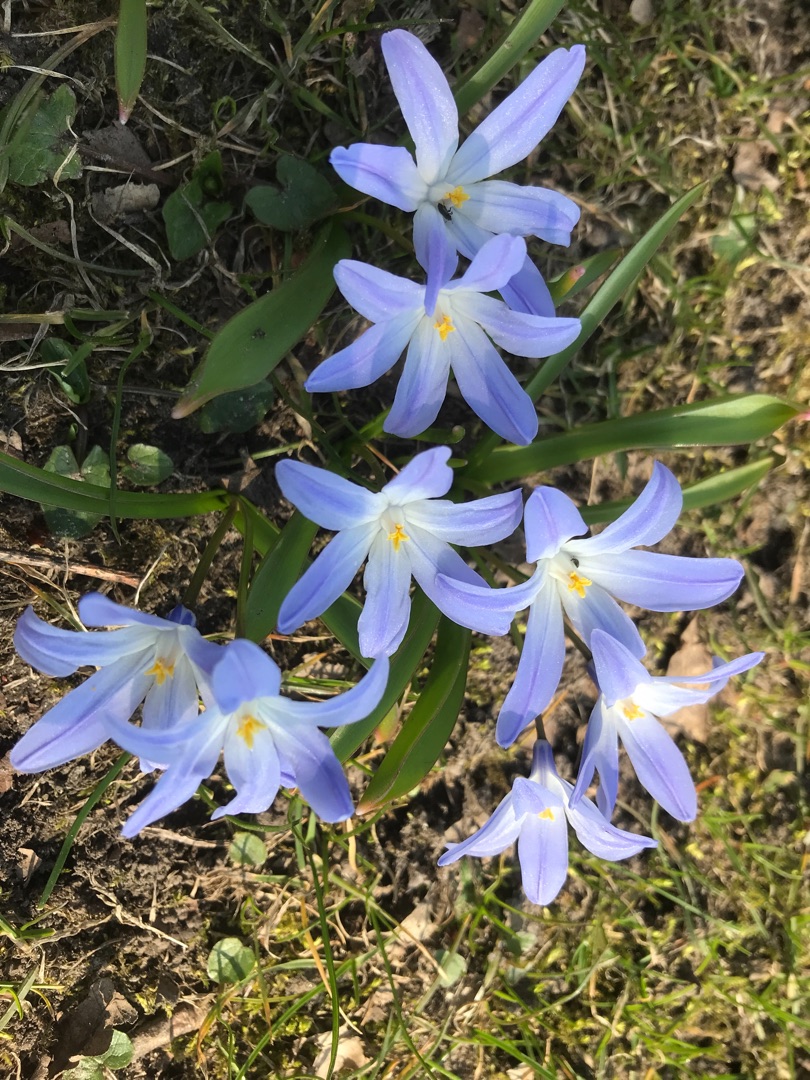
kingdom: Plantae
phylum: Tracheophyta
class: Liliopsida
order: Asparagales
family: Asparagaceae
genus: Scilla
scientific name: Scilla luciliae
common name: Stor snepryd
